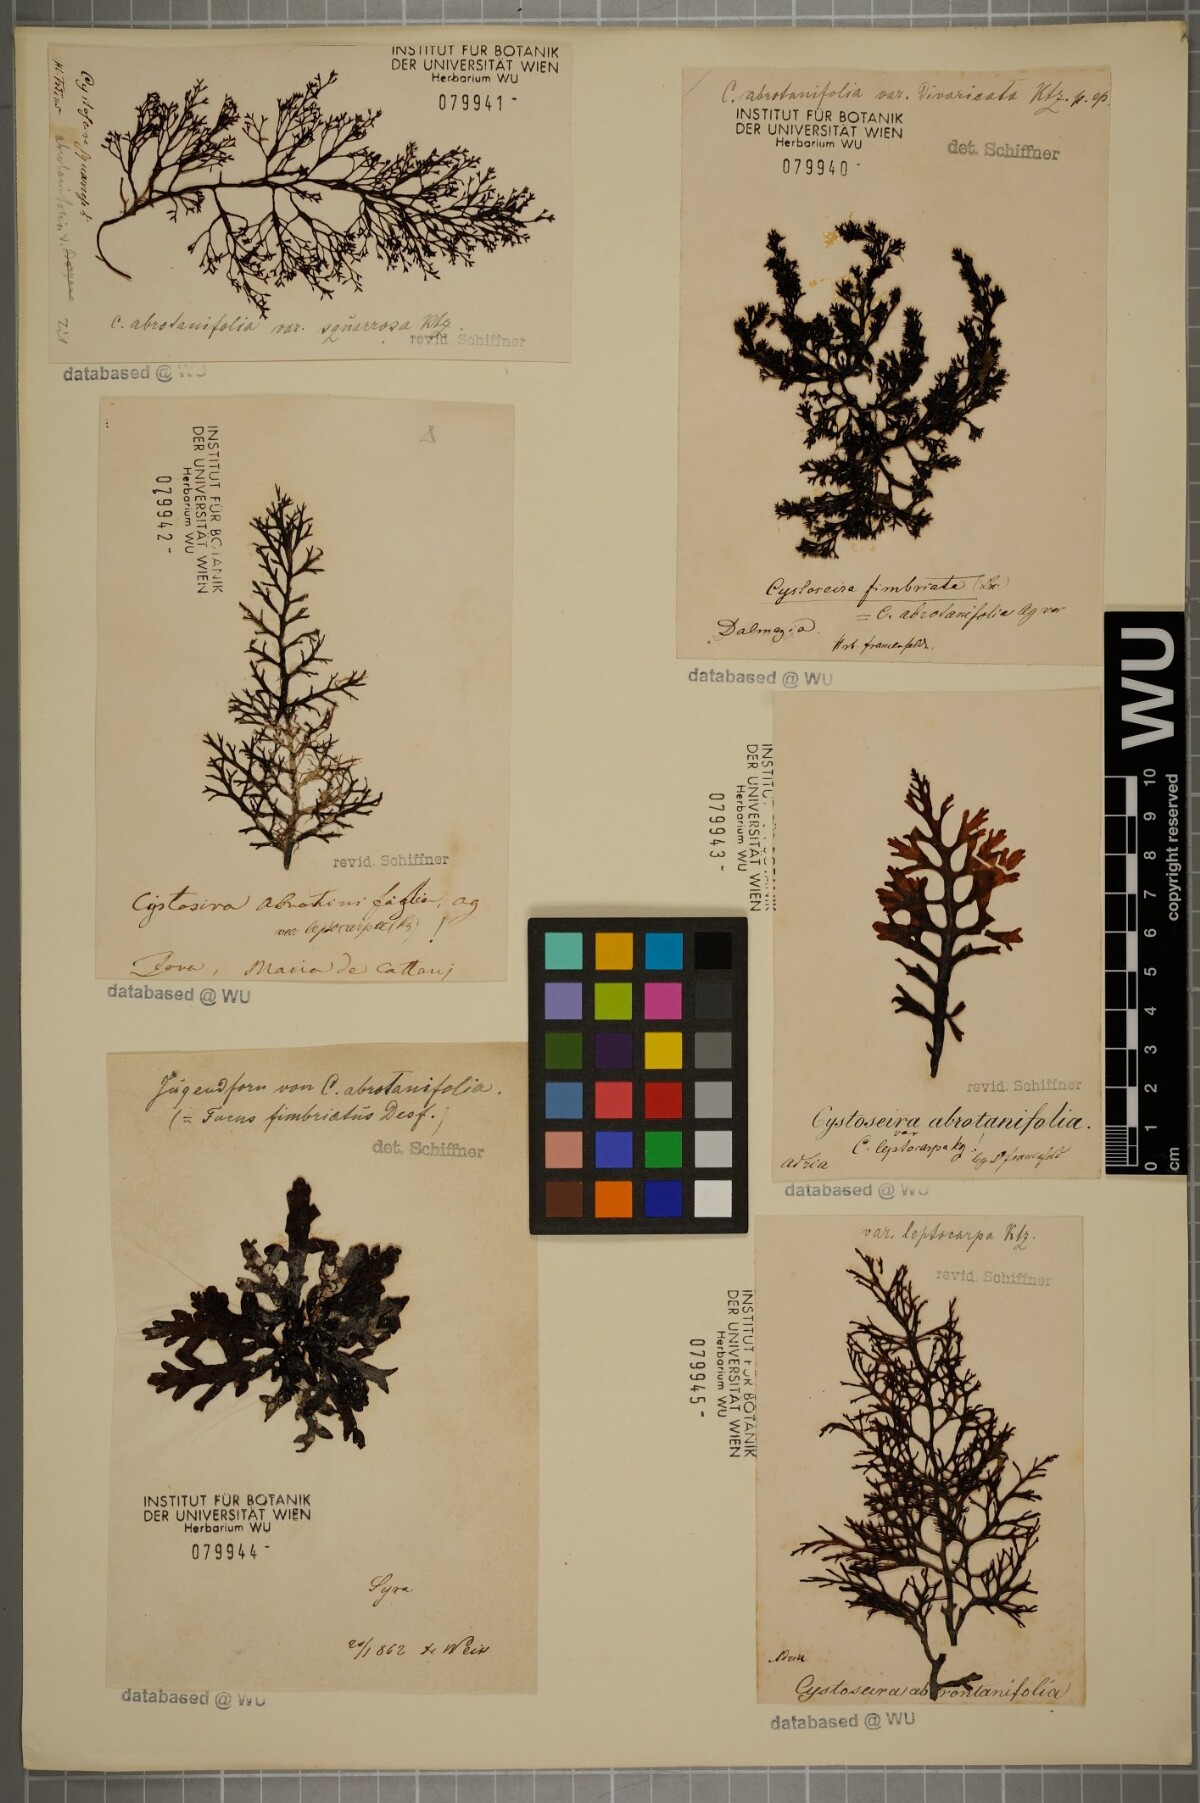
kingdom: Chromista
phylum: Ochrophyta
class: Phaeophyceae
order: Fucales
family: Sargassaceae
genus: Cystoseira
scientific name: Cystoseira foeniculacea
